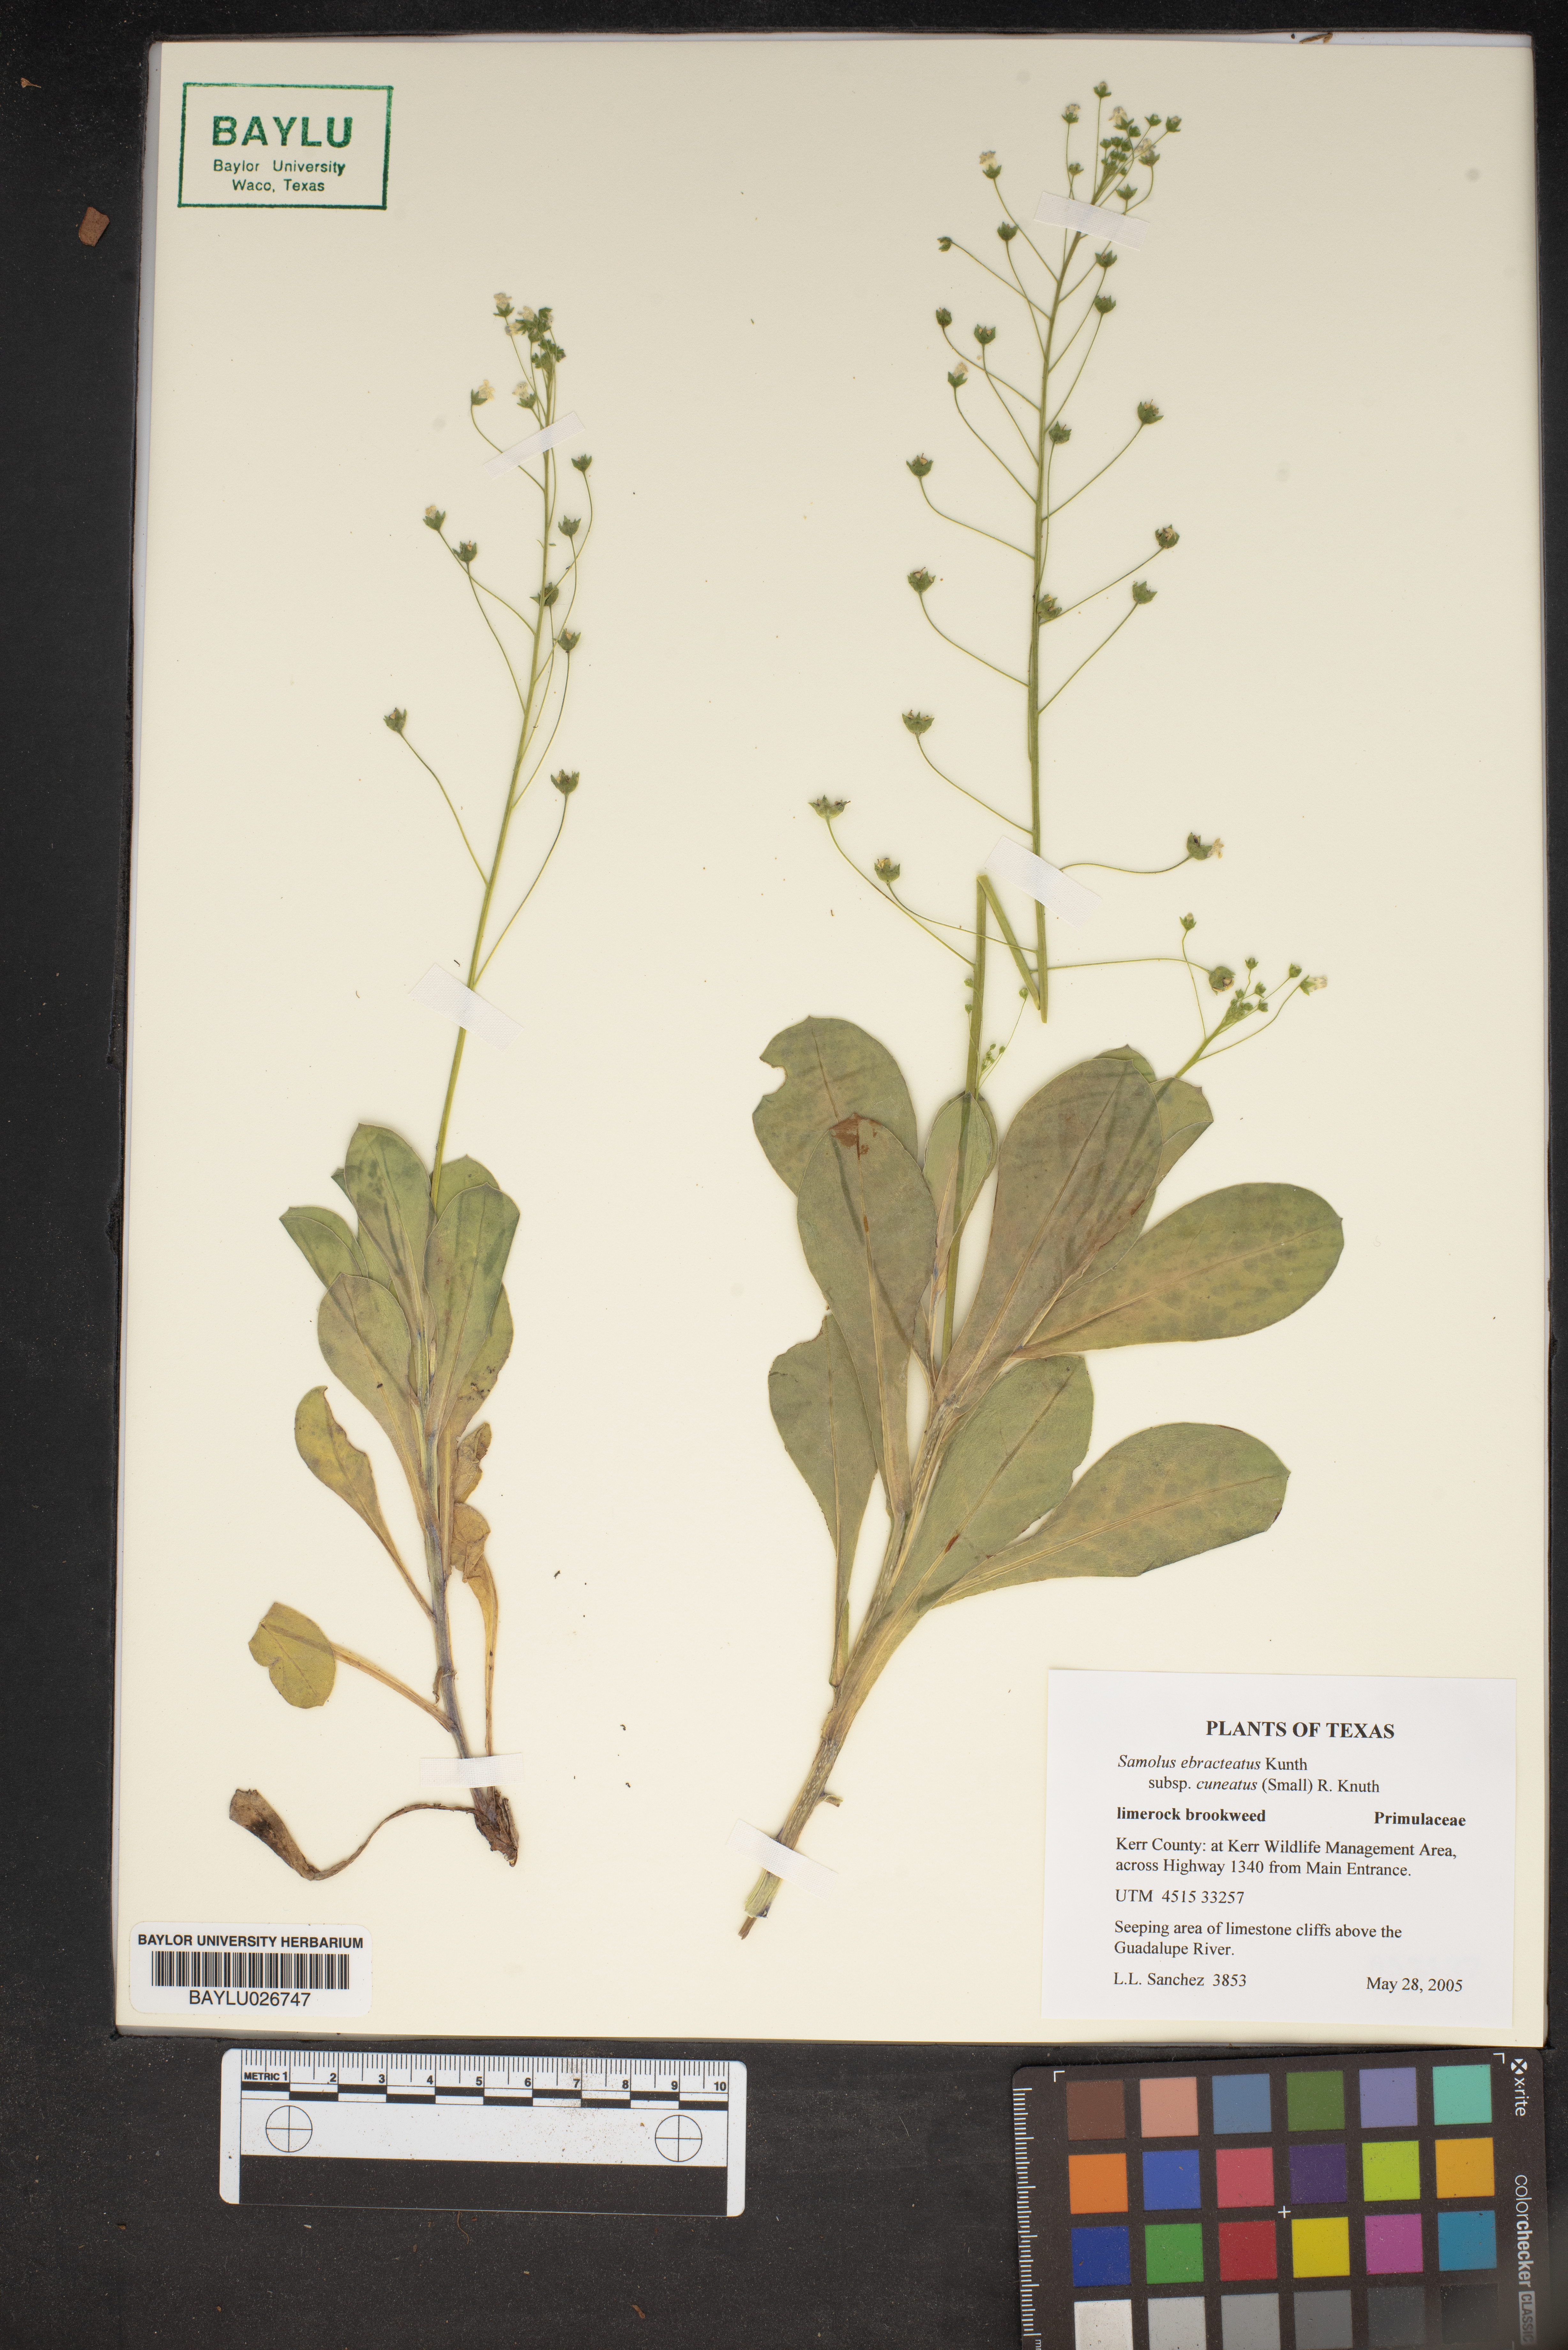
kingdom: Plantae
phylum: Tracheophyta
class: Magnoliopsida
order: Ericales
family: Primulaceae
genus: Samolus
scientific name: Samolus ebracteatus
